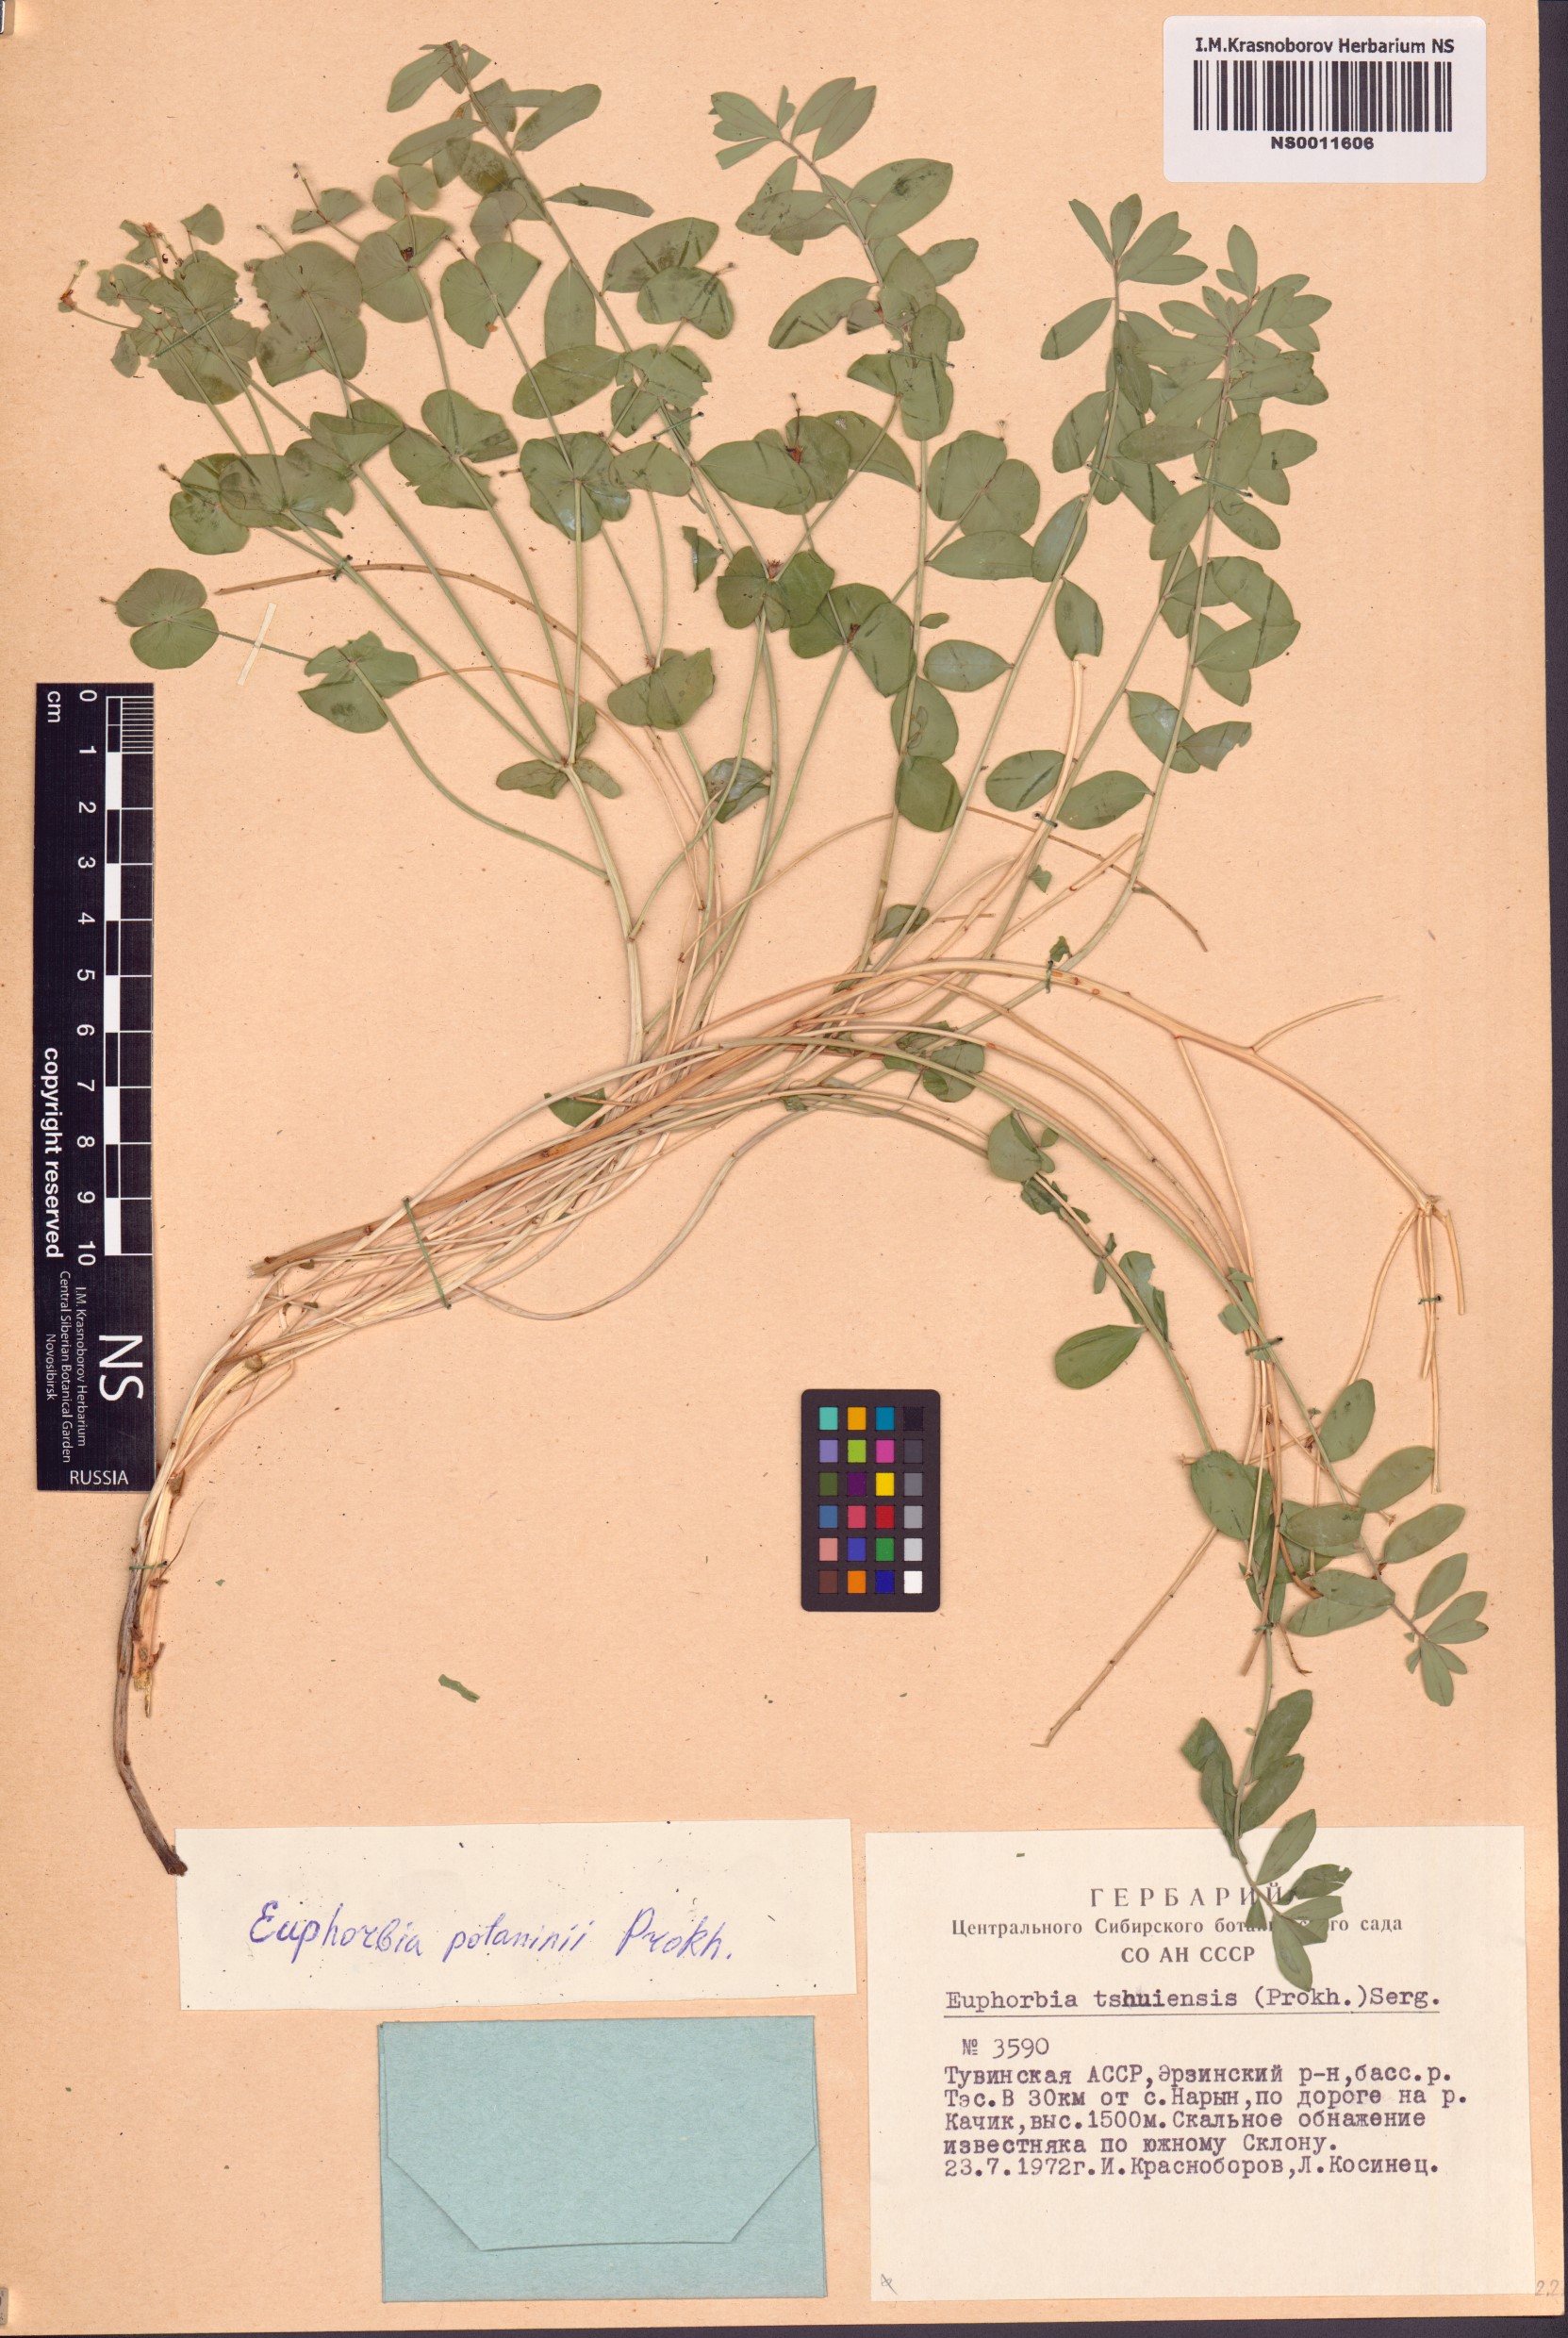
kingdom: Plantae
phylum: Tracheophyta
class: Magnoliopsida
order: Malpighiales
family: Euphorbiaceae
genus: Euphorbia
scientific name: Euphorbia potaninii
